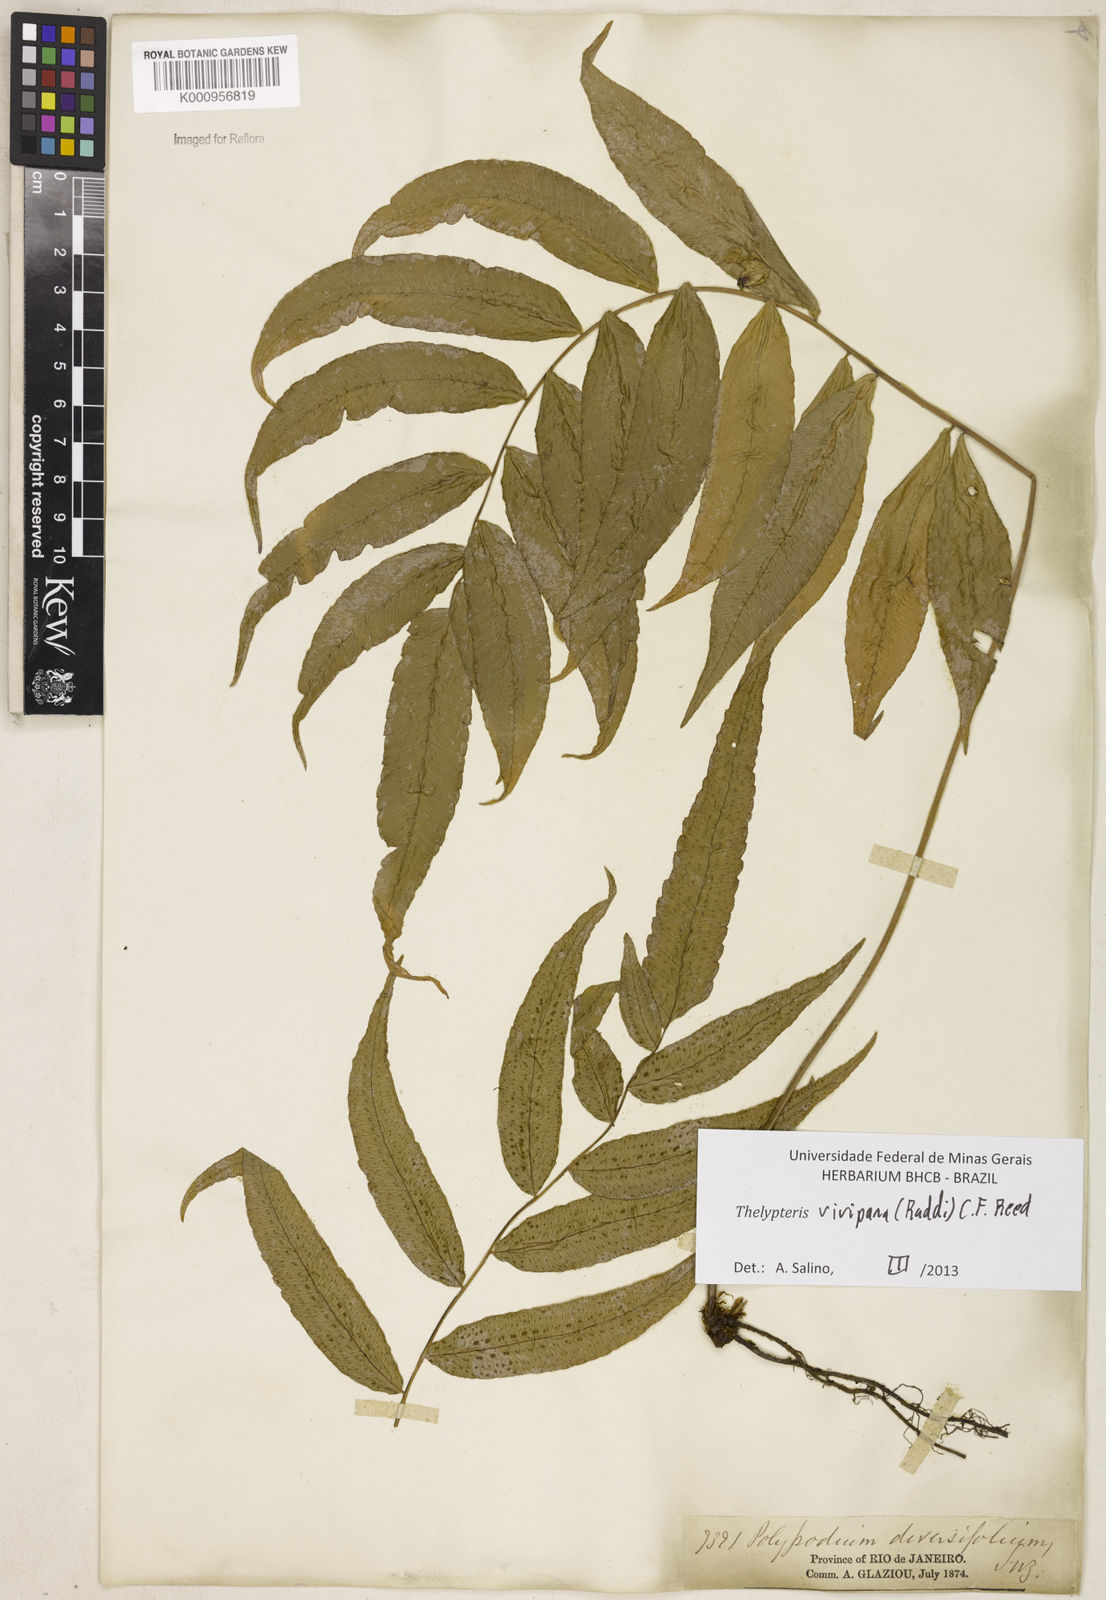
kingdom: Plantae
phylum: Tracheophyta
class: Polypodiopsida
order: Polypodiales
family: Thelypteridaceae
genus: Goniopteris
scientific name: Goniopteris vivipara
